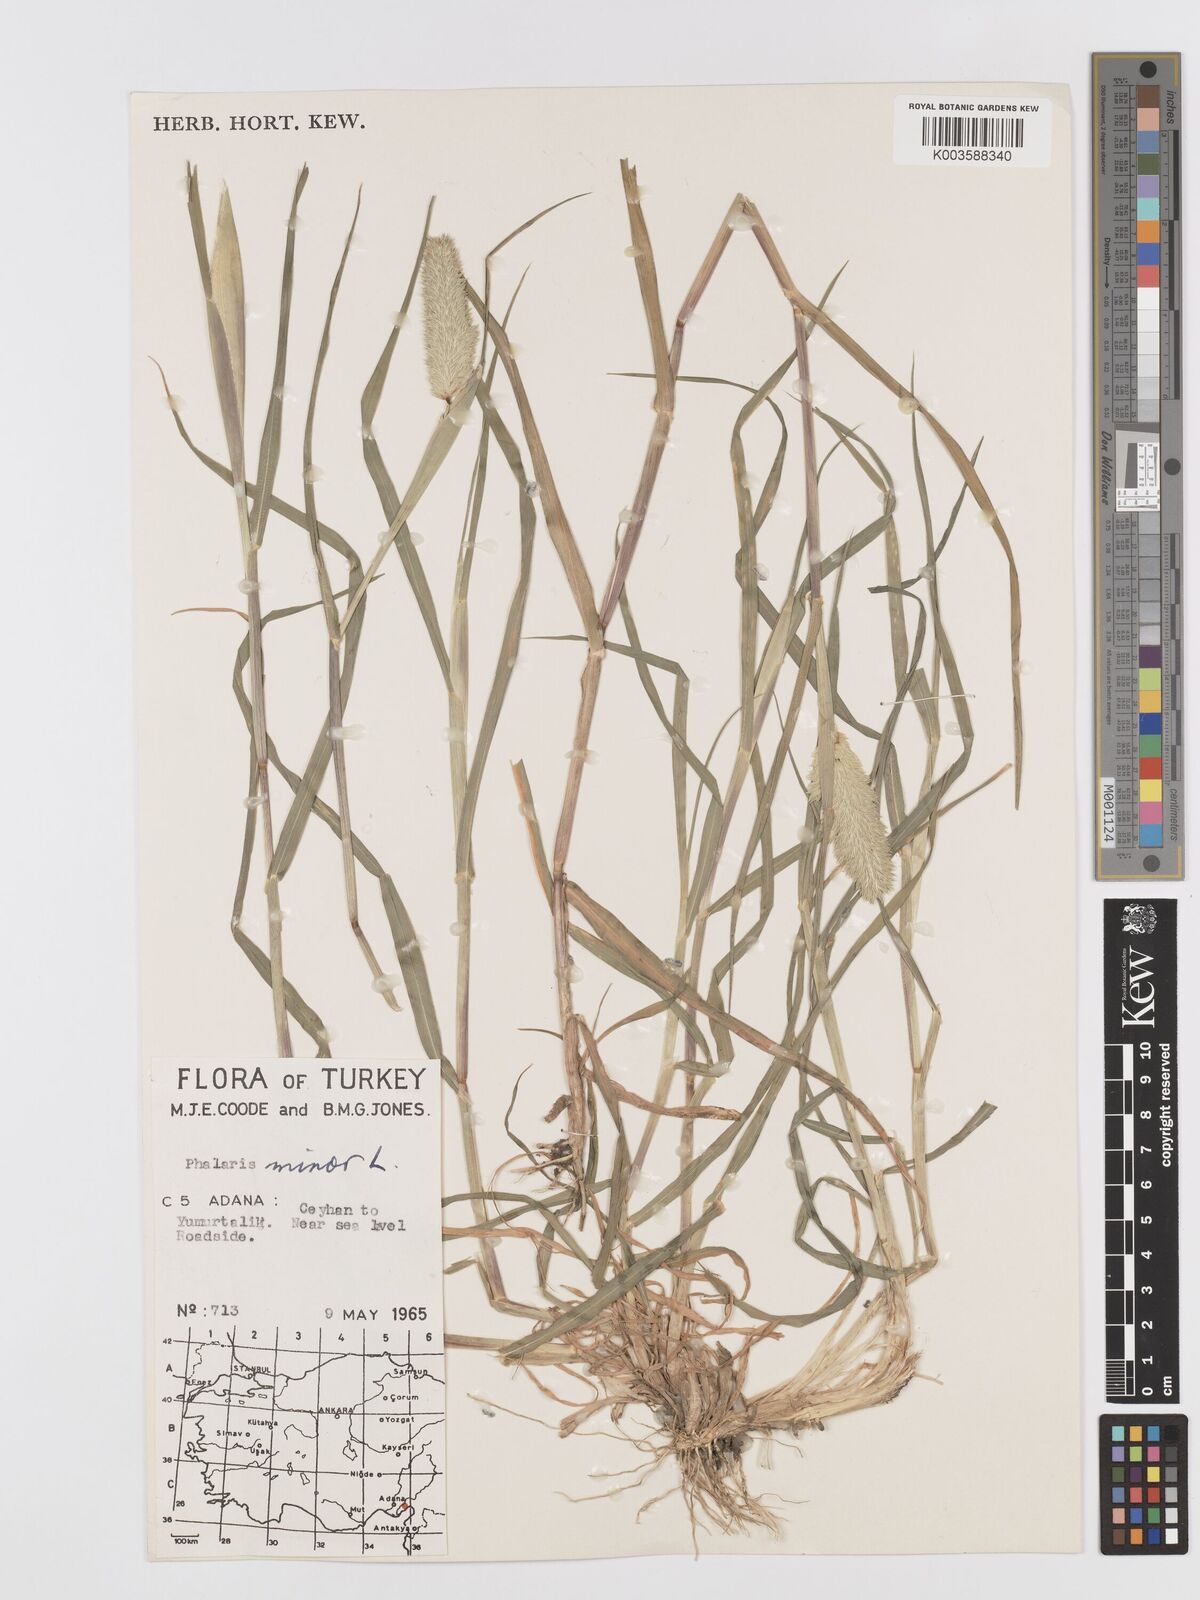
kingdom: Plantae
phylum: Tracheophyta
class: Liliopsida
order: Poales
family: Poaceae
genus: Phalaris
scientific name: Phalaris minor
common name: Littleseed canarygrass
